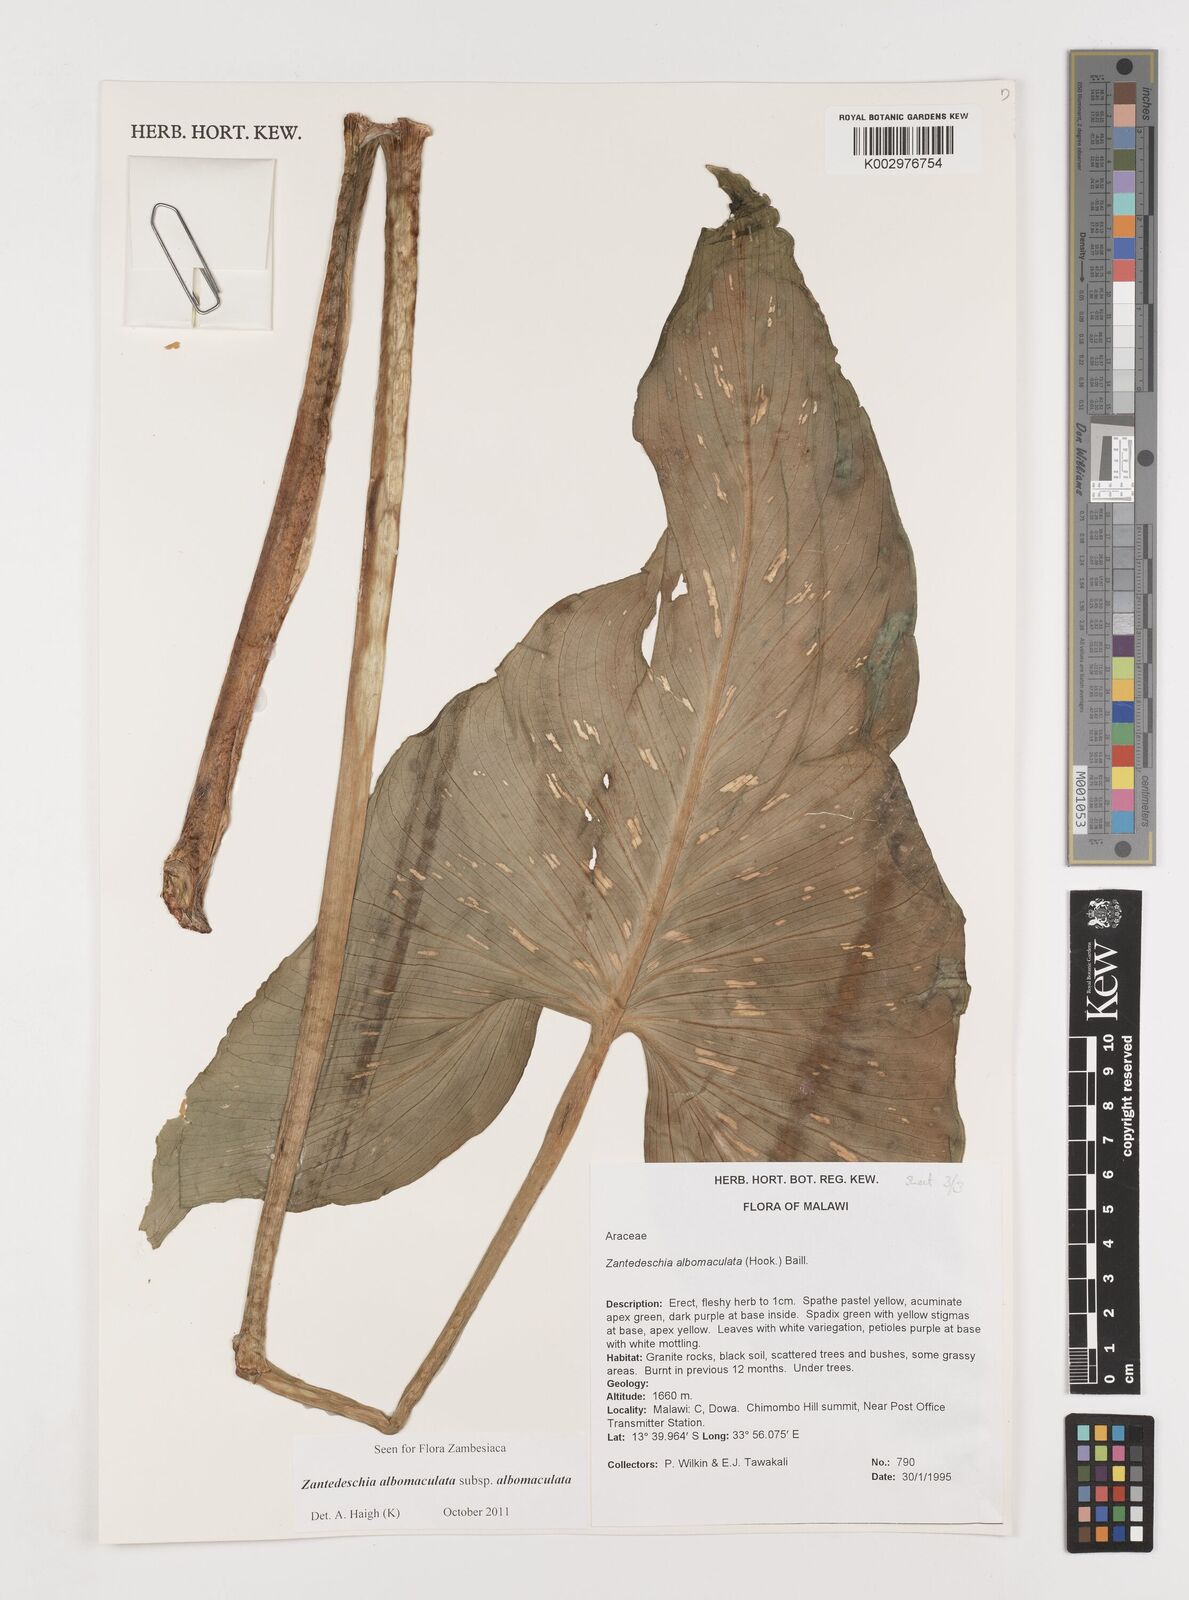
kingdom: Plantae
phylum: Tracheophyta
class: Liliopsida
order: Alismatales
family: Araceae
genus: Zantedeschia
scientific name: Zantedeschia albomaculata
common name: Spotted calla lily
